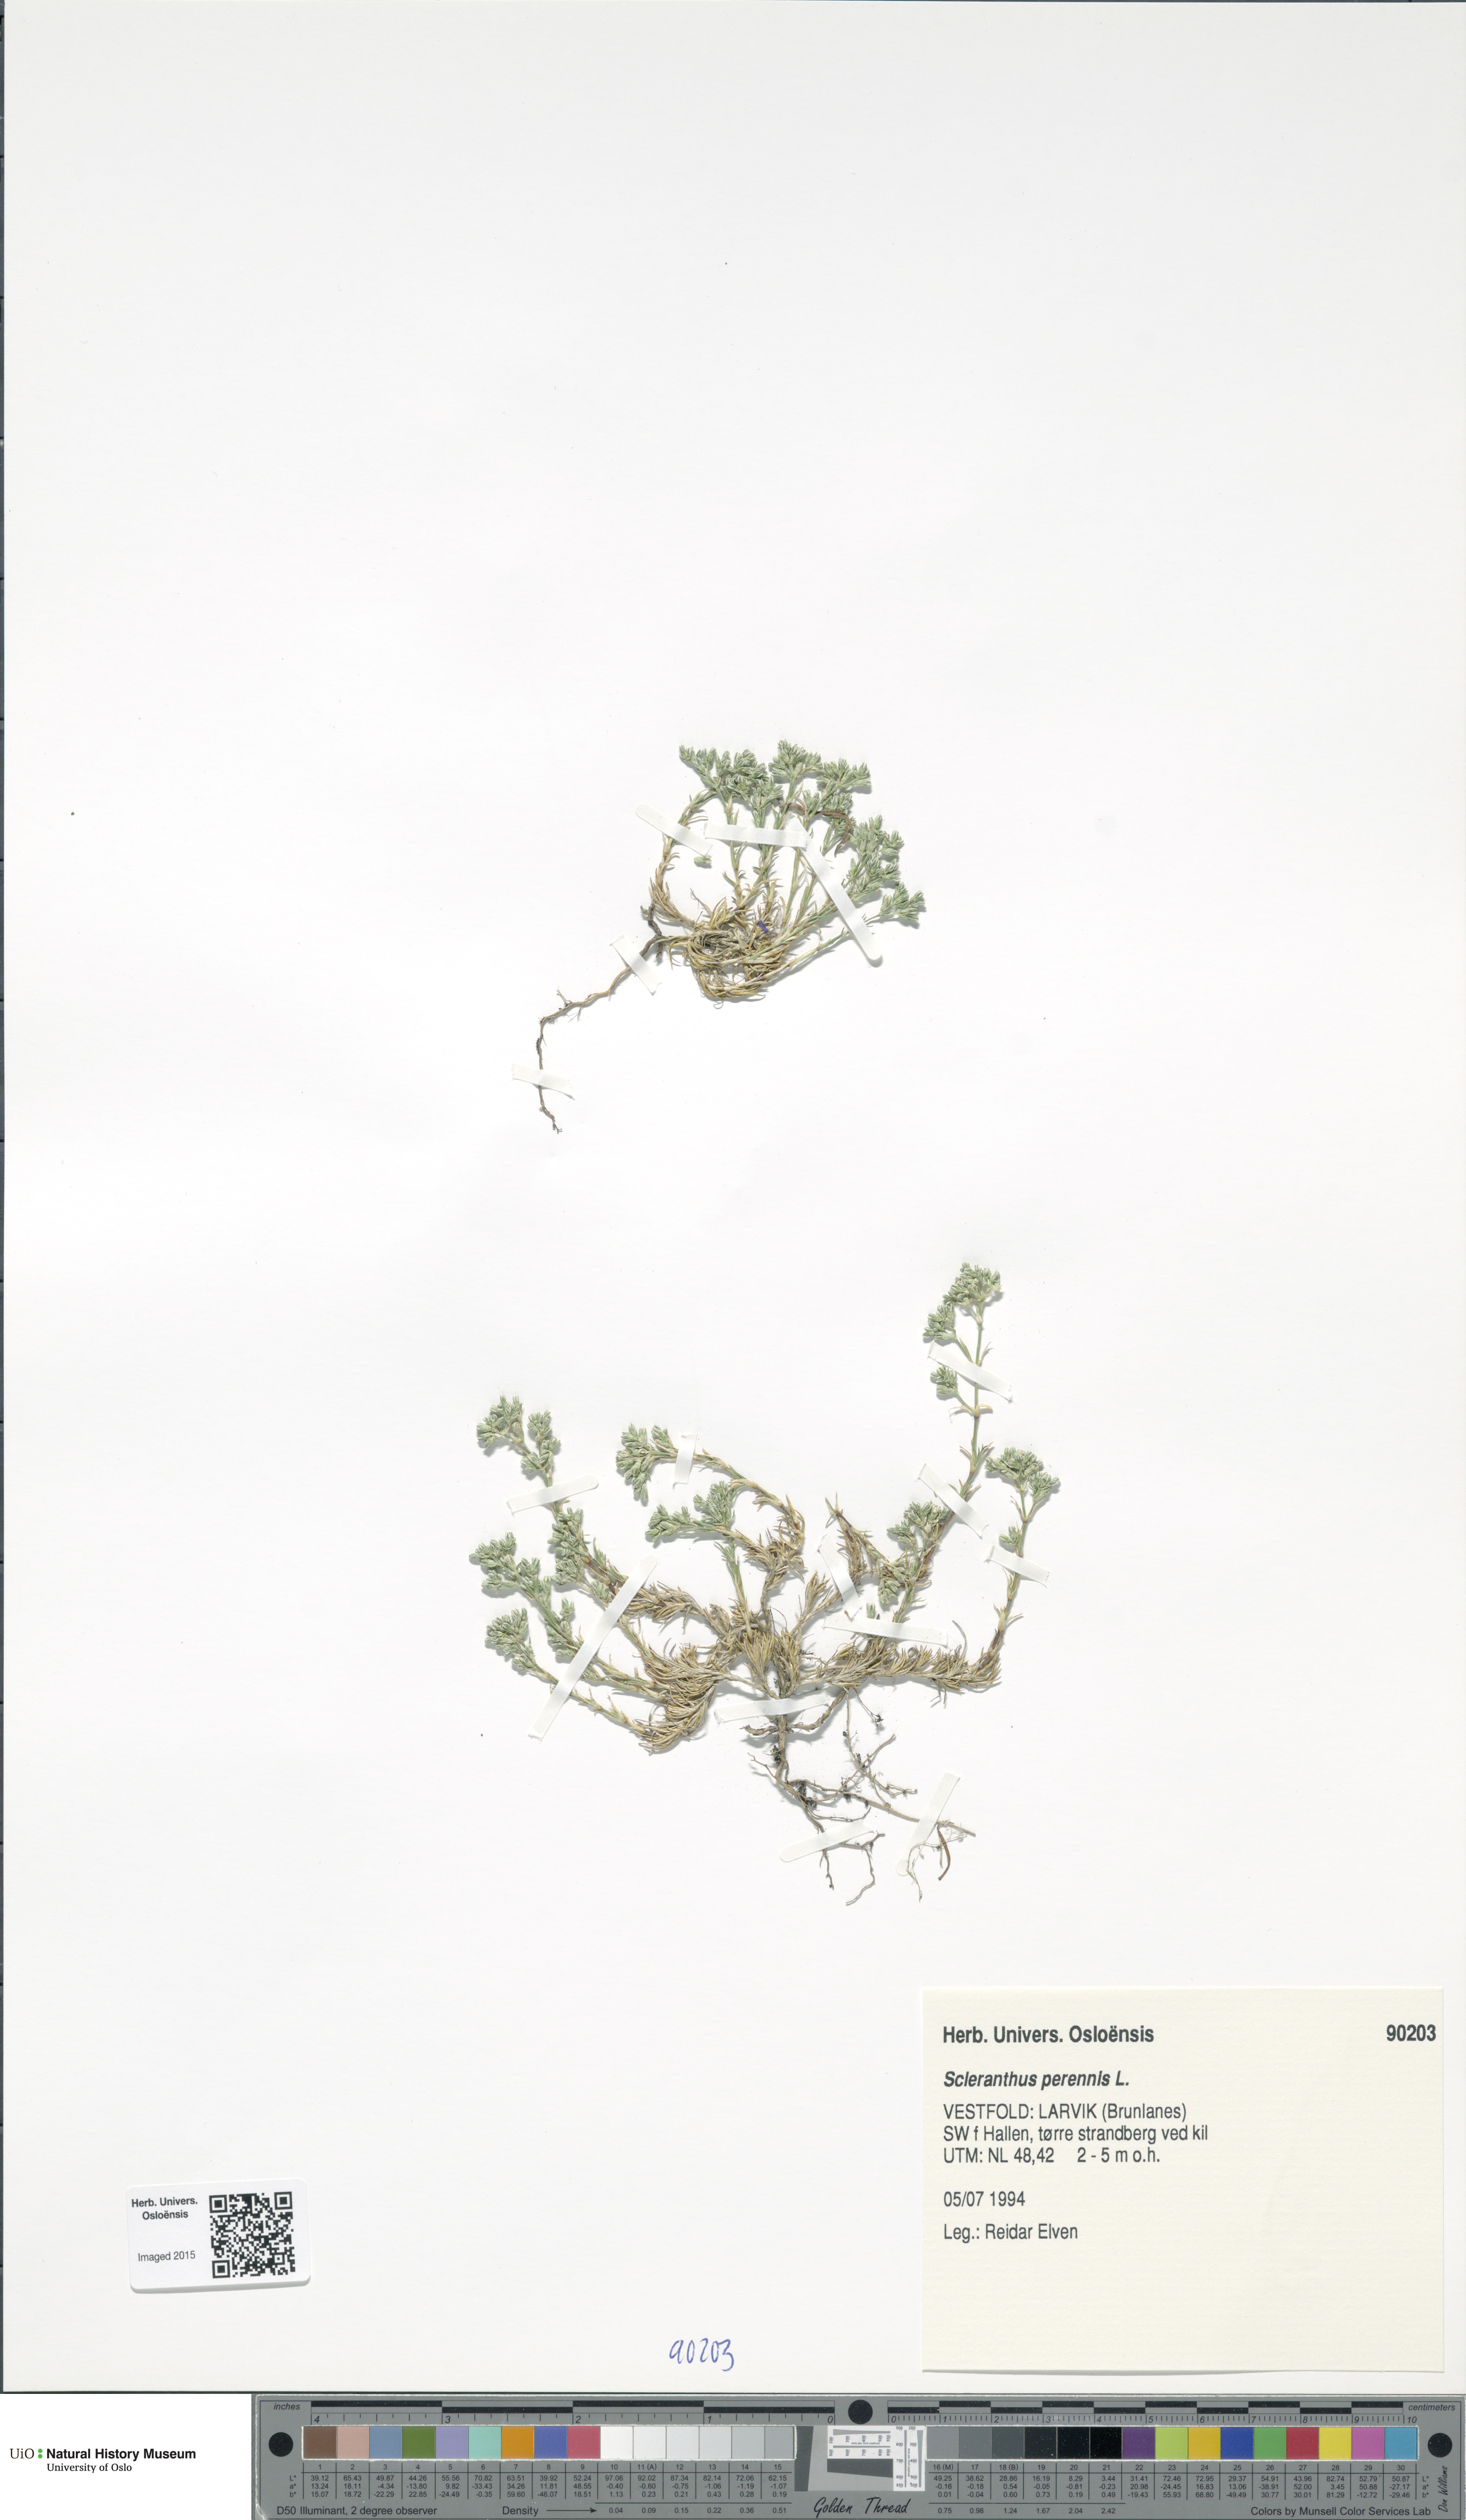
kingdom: Plantae
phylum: Tracheophyta
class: Magnoliopsida
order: Caryophyllales
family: Caryophyllaceae
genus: Scleranthus
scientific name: Scleranthus perennis
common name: Perennial knawel
